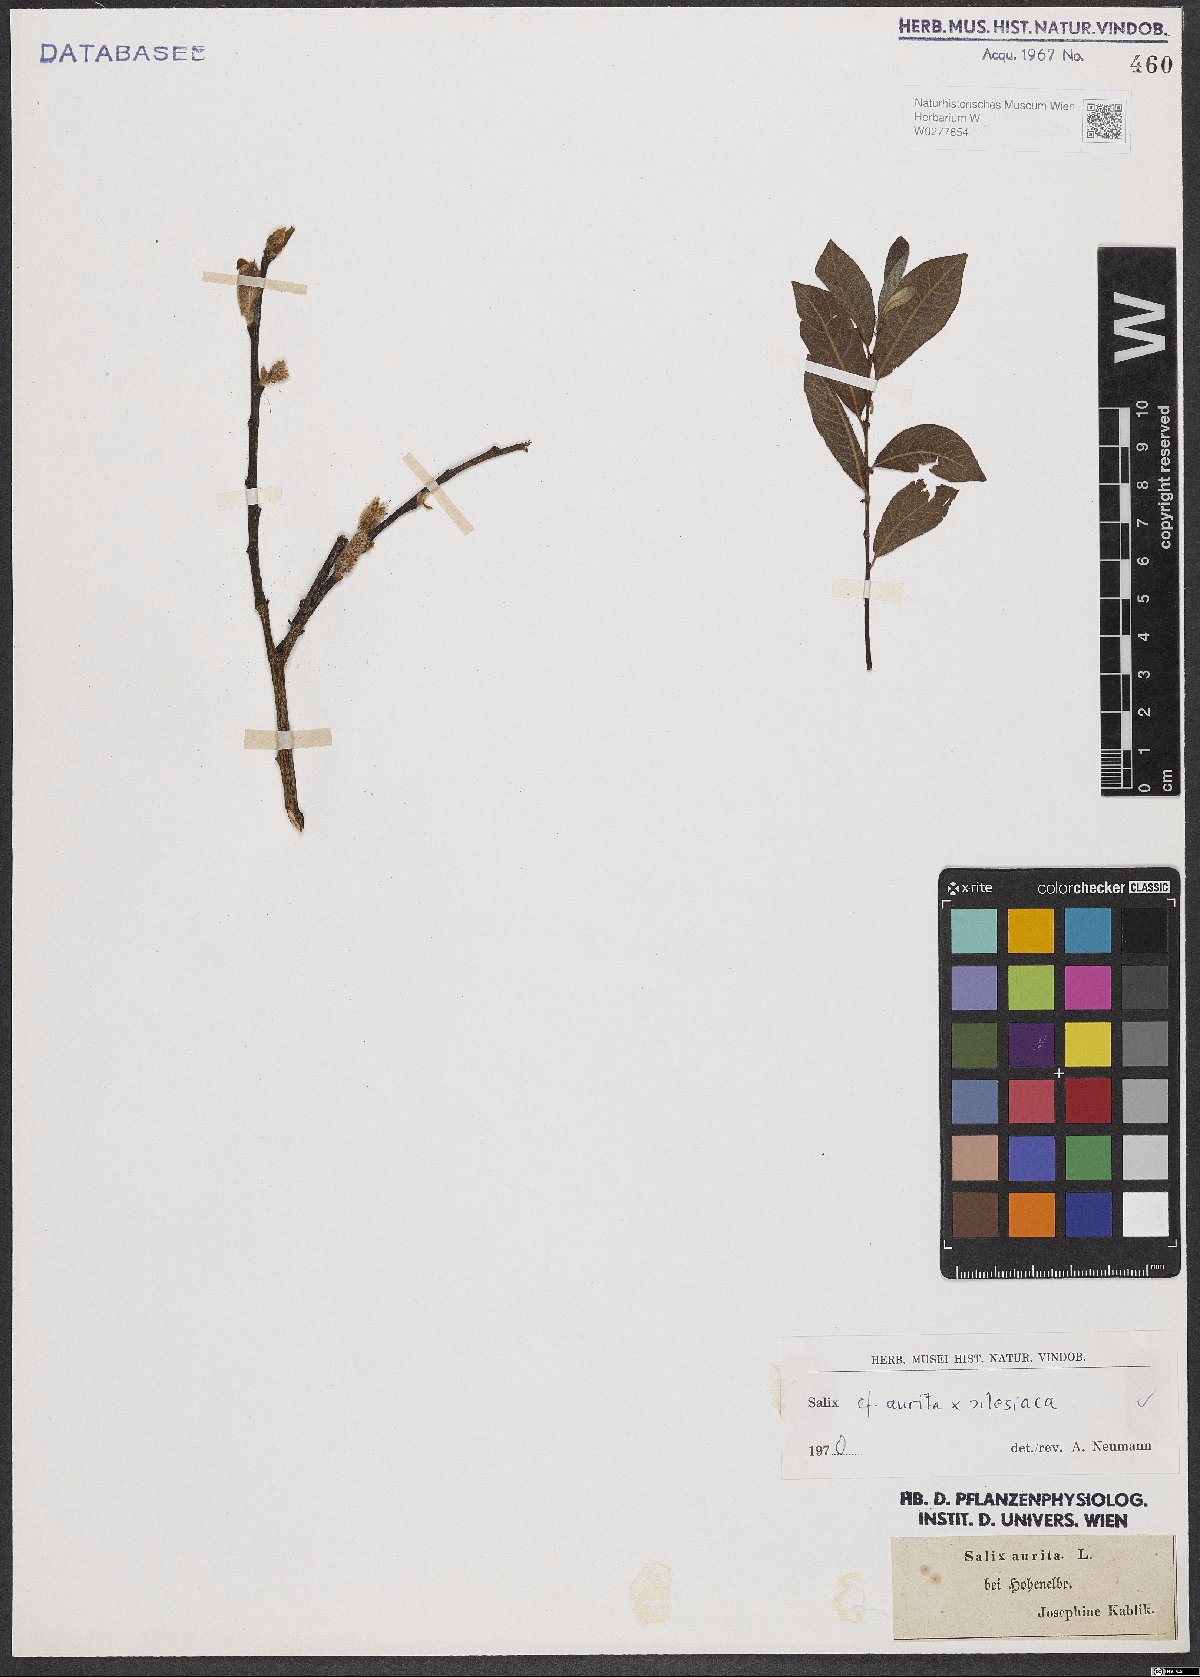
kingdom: Plantae
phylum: Tracheophyta
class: Magnoliopsida
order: Malpighiales
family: Salicaceae
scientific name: Salicaceae
